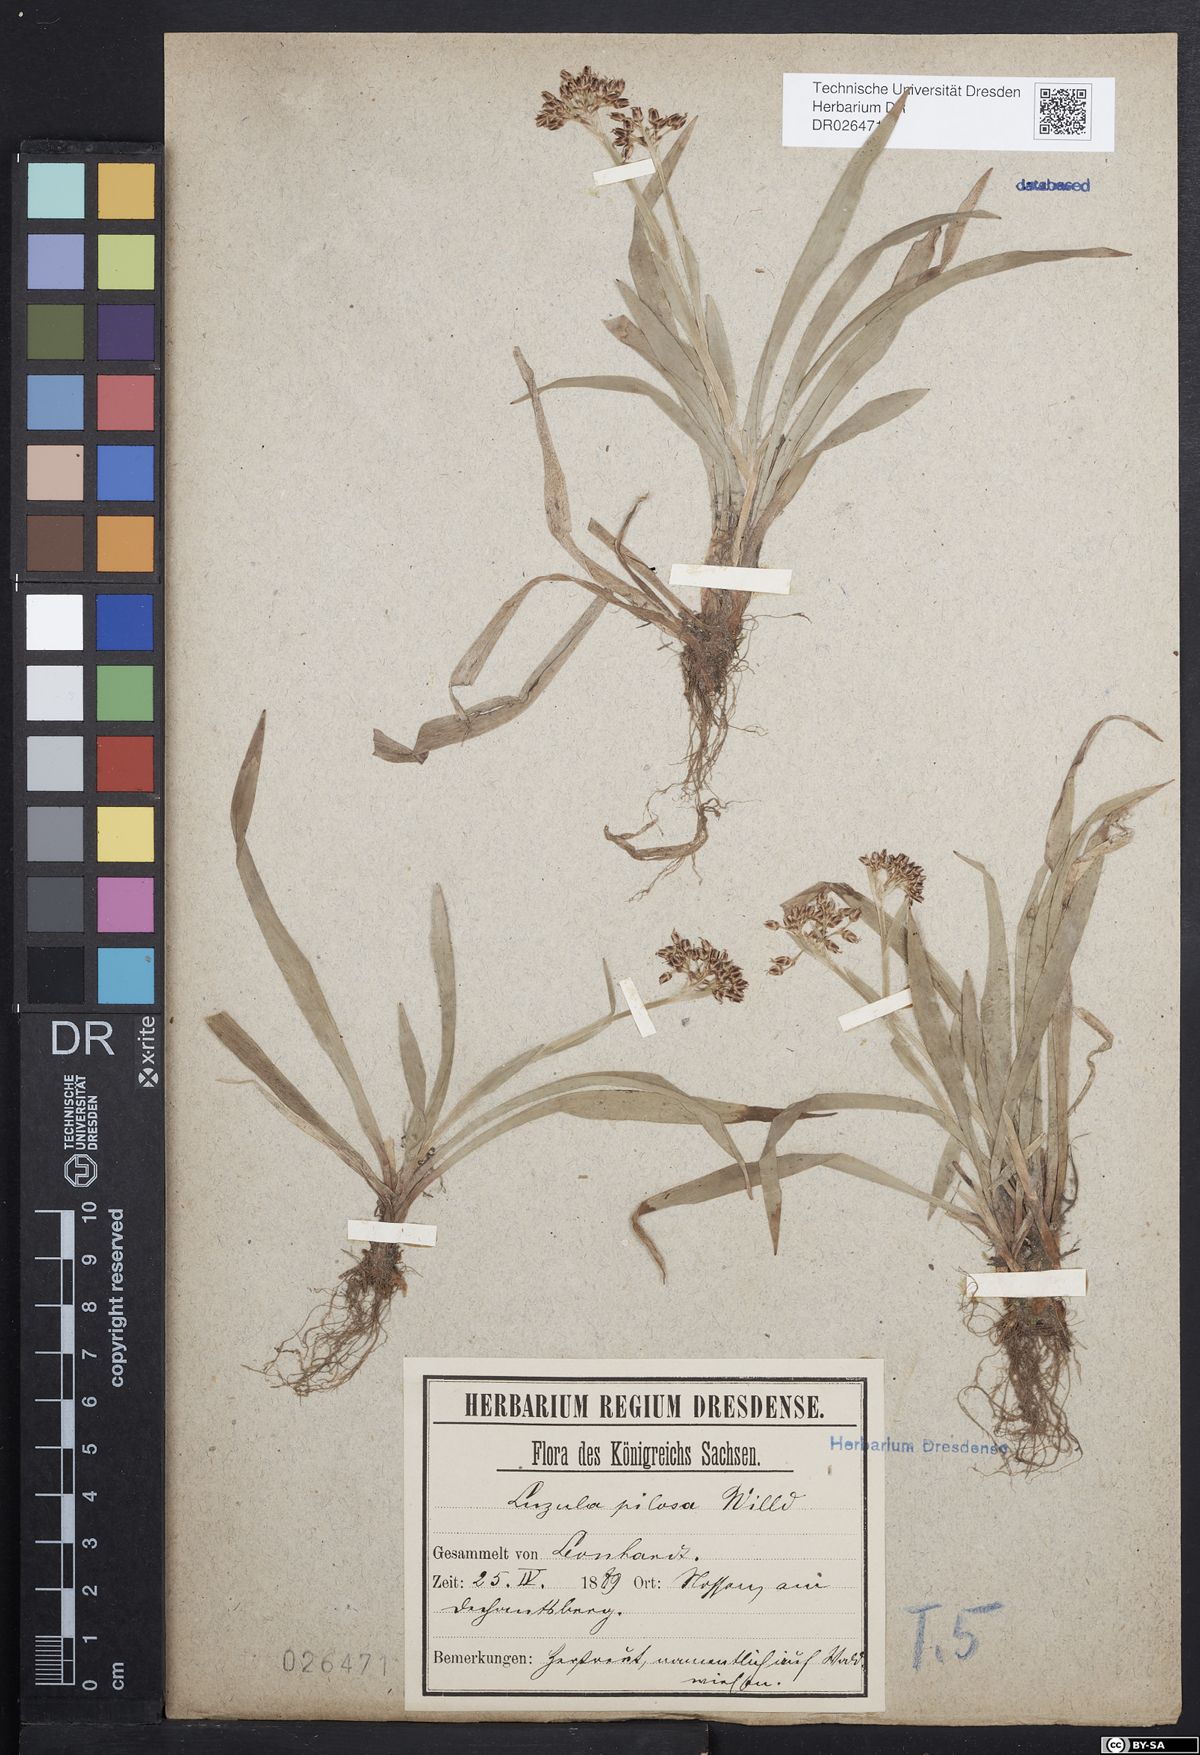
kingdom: Plantae
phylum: Tracheophyta
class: Liliopsida
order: Poales
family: Juncaceae
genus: Luzula
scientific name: Luzula pilosa
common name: Hairy wood-rush
